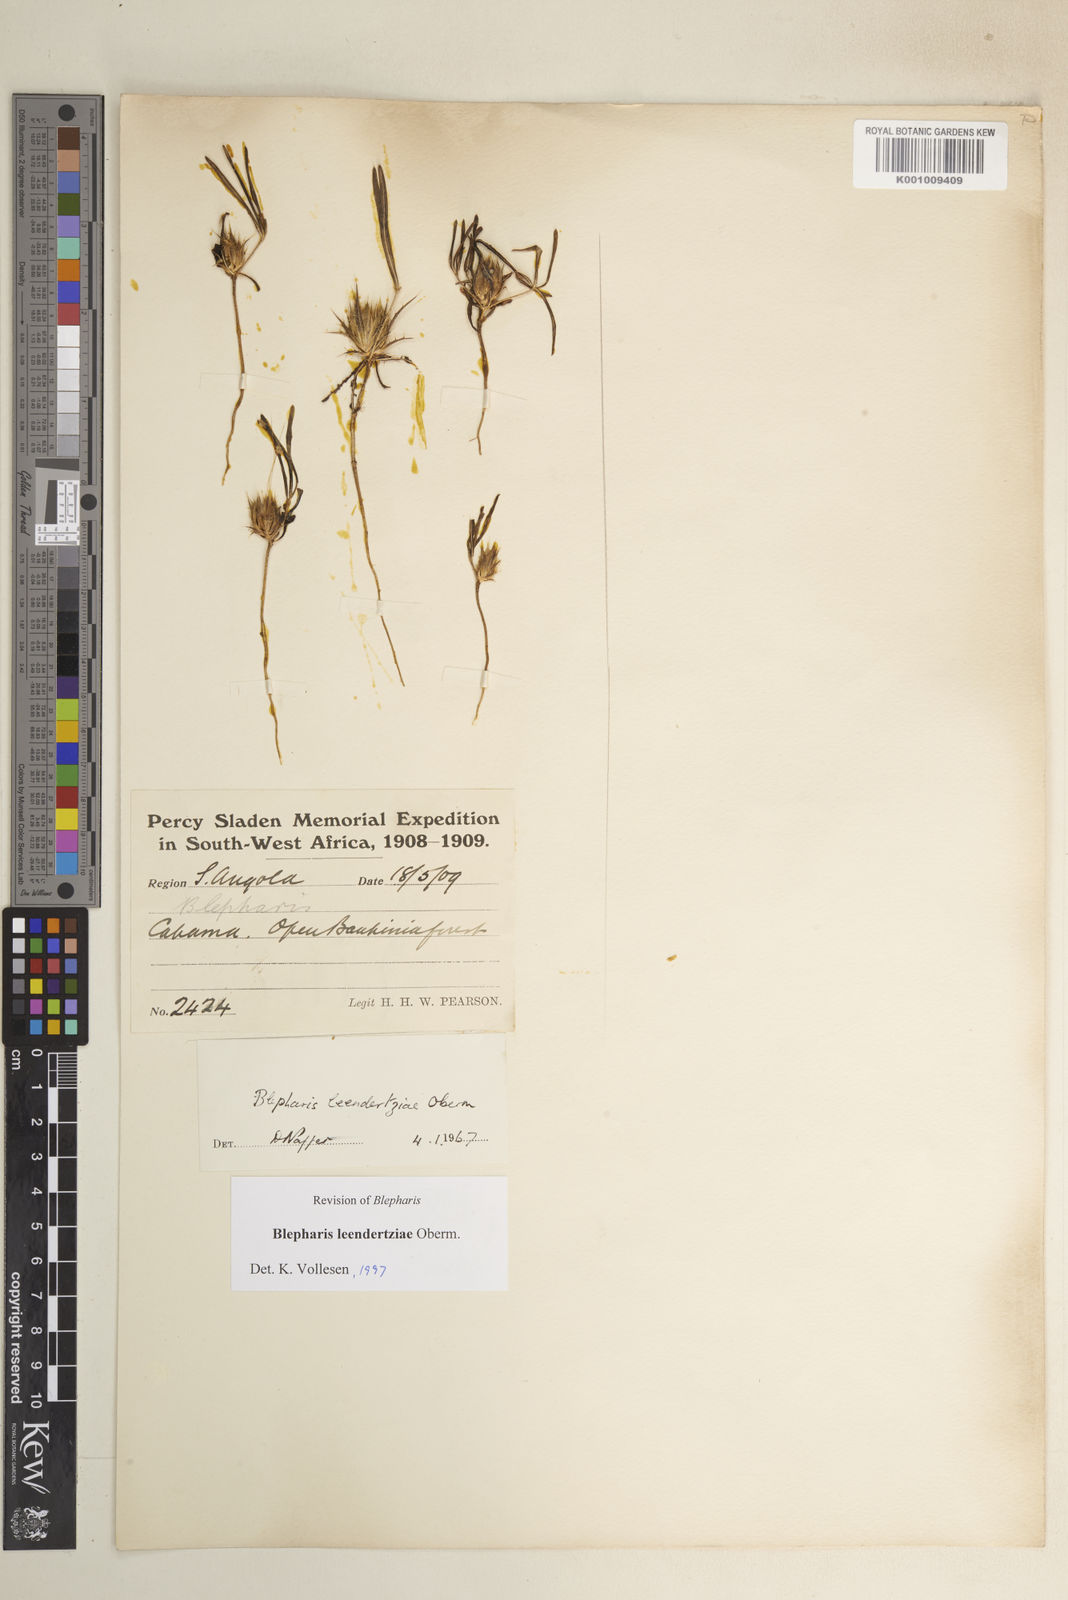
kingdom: Plantae
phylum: Tracheophyta
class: Magnoliopsida
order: Lamiales
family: Acanthaceae
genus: Blepharis
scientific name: Blepharis leendertziae
